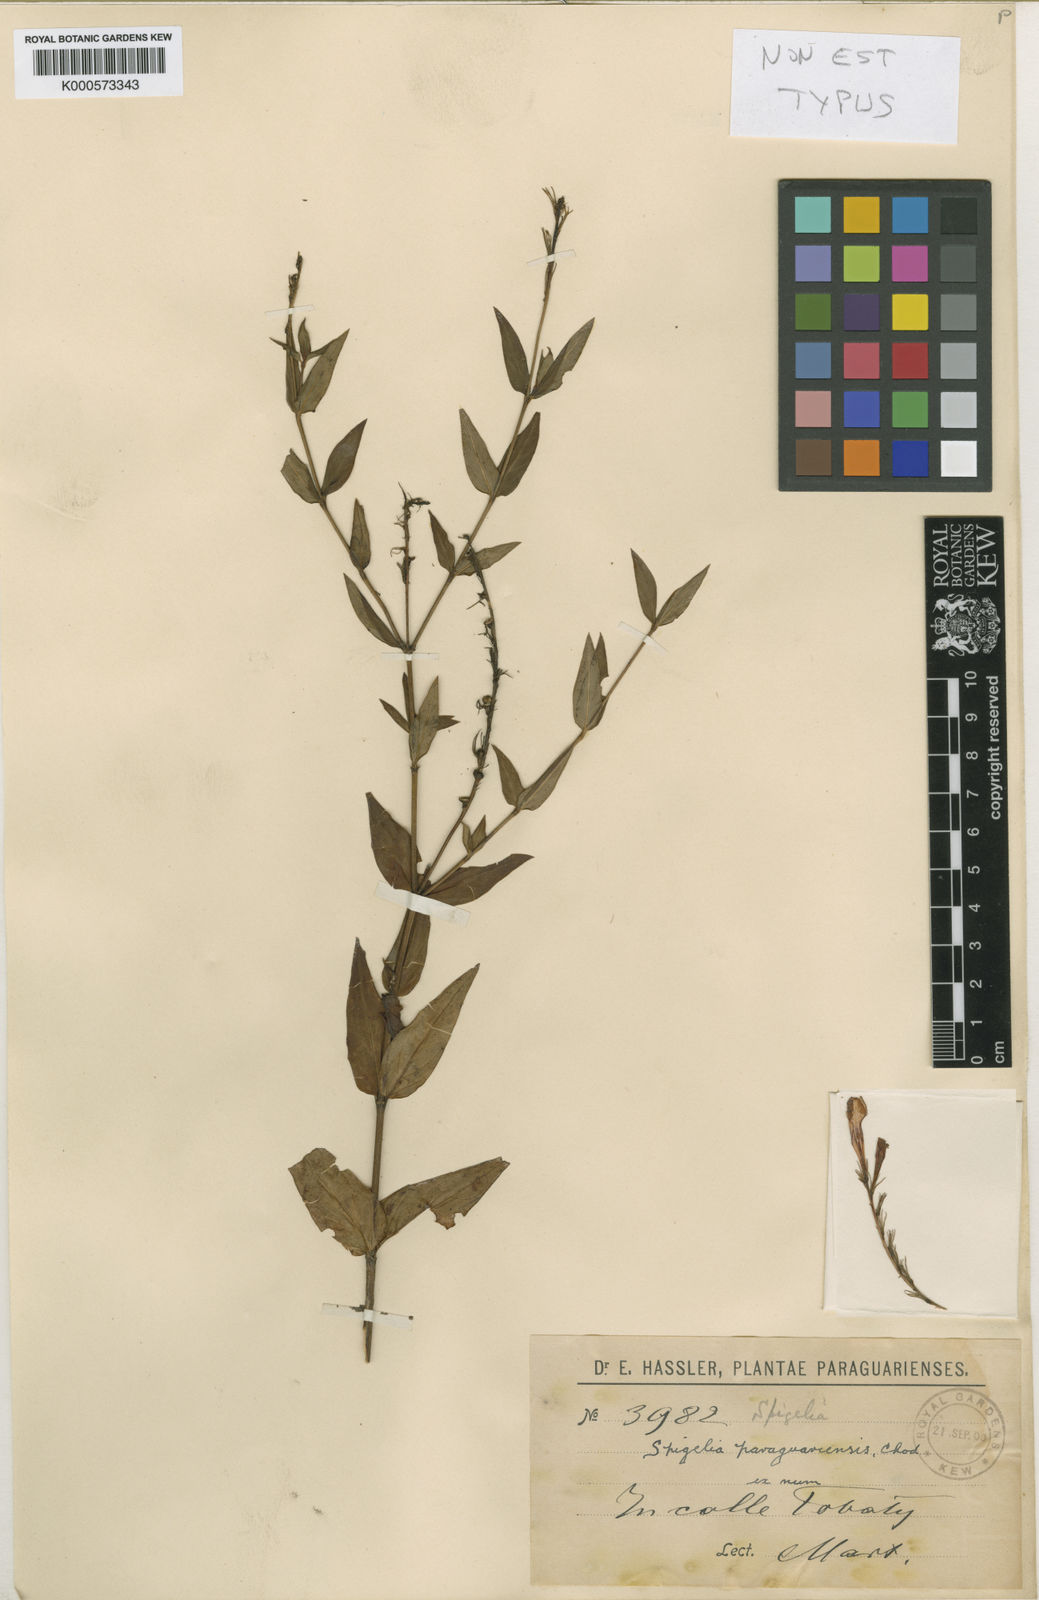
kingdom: Plantae
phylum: Tracheophyta
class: Magnoliopsida
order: Gentianales
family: Loganiaceae
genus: Spigelia
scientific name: Spigelia
